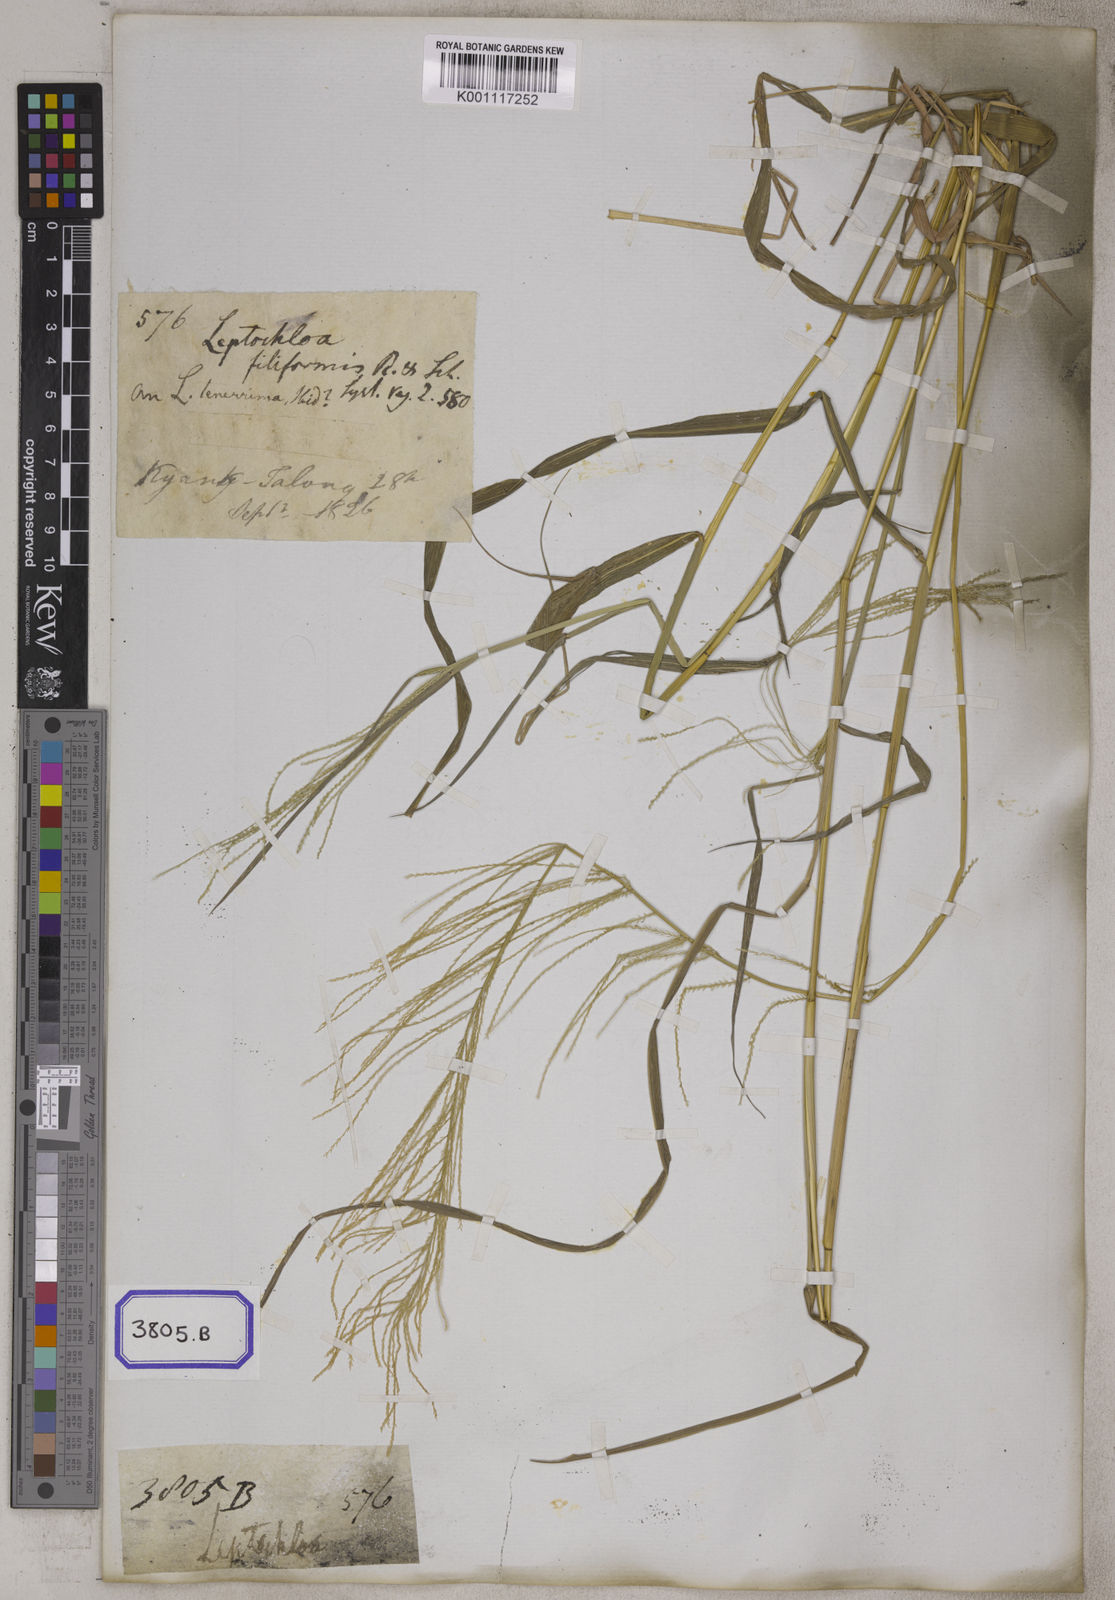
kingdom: Plantae
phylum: Tracheophyta
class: Liliopsida
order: Poales
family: Poaceae
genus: Leptochloa
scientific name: Leptochloa
